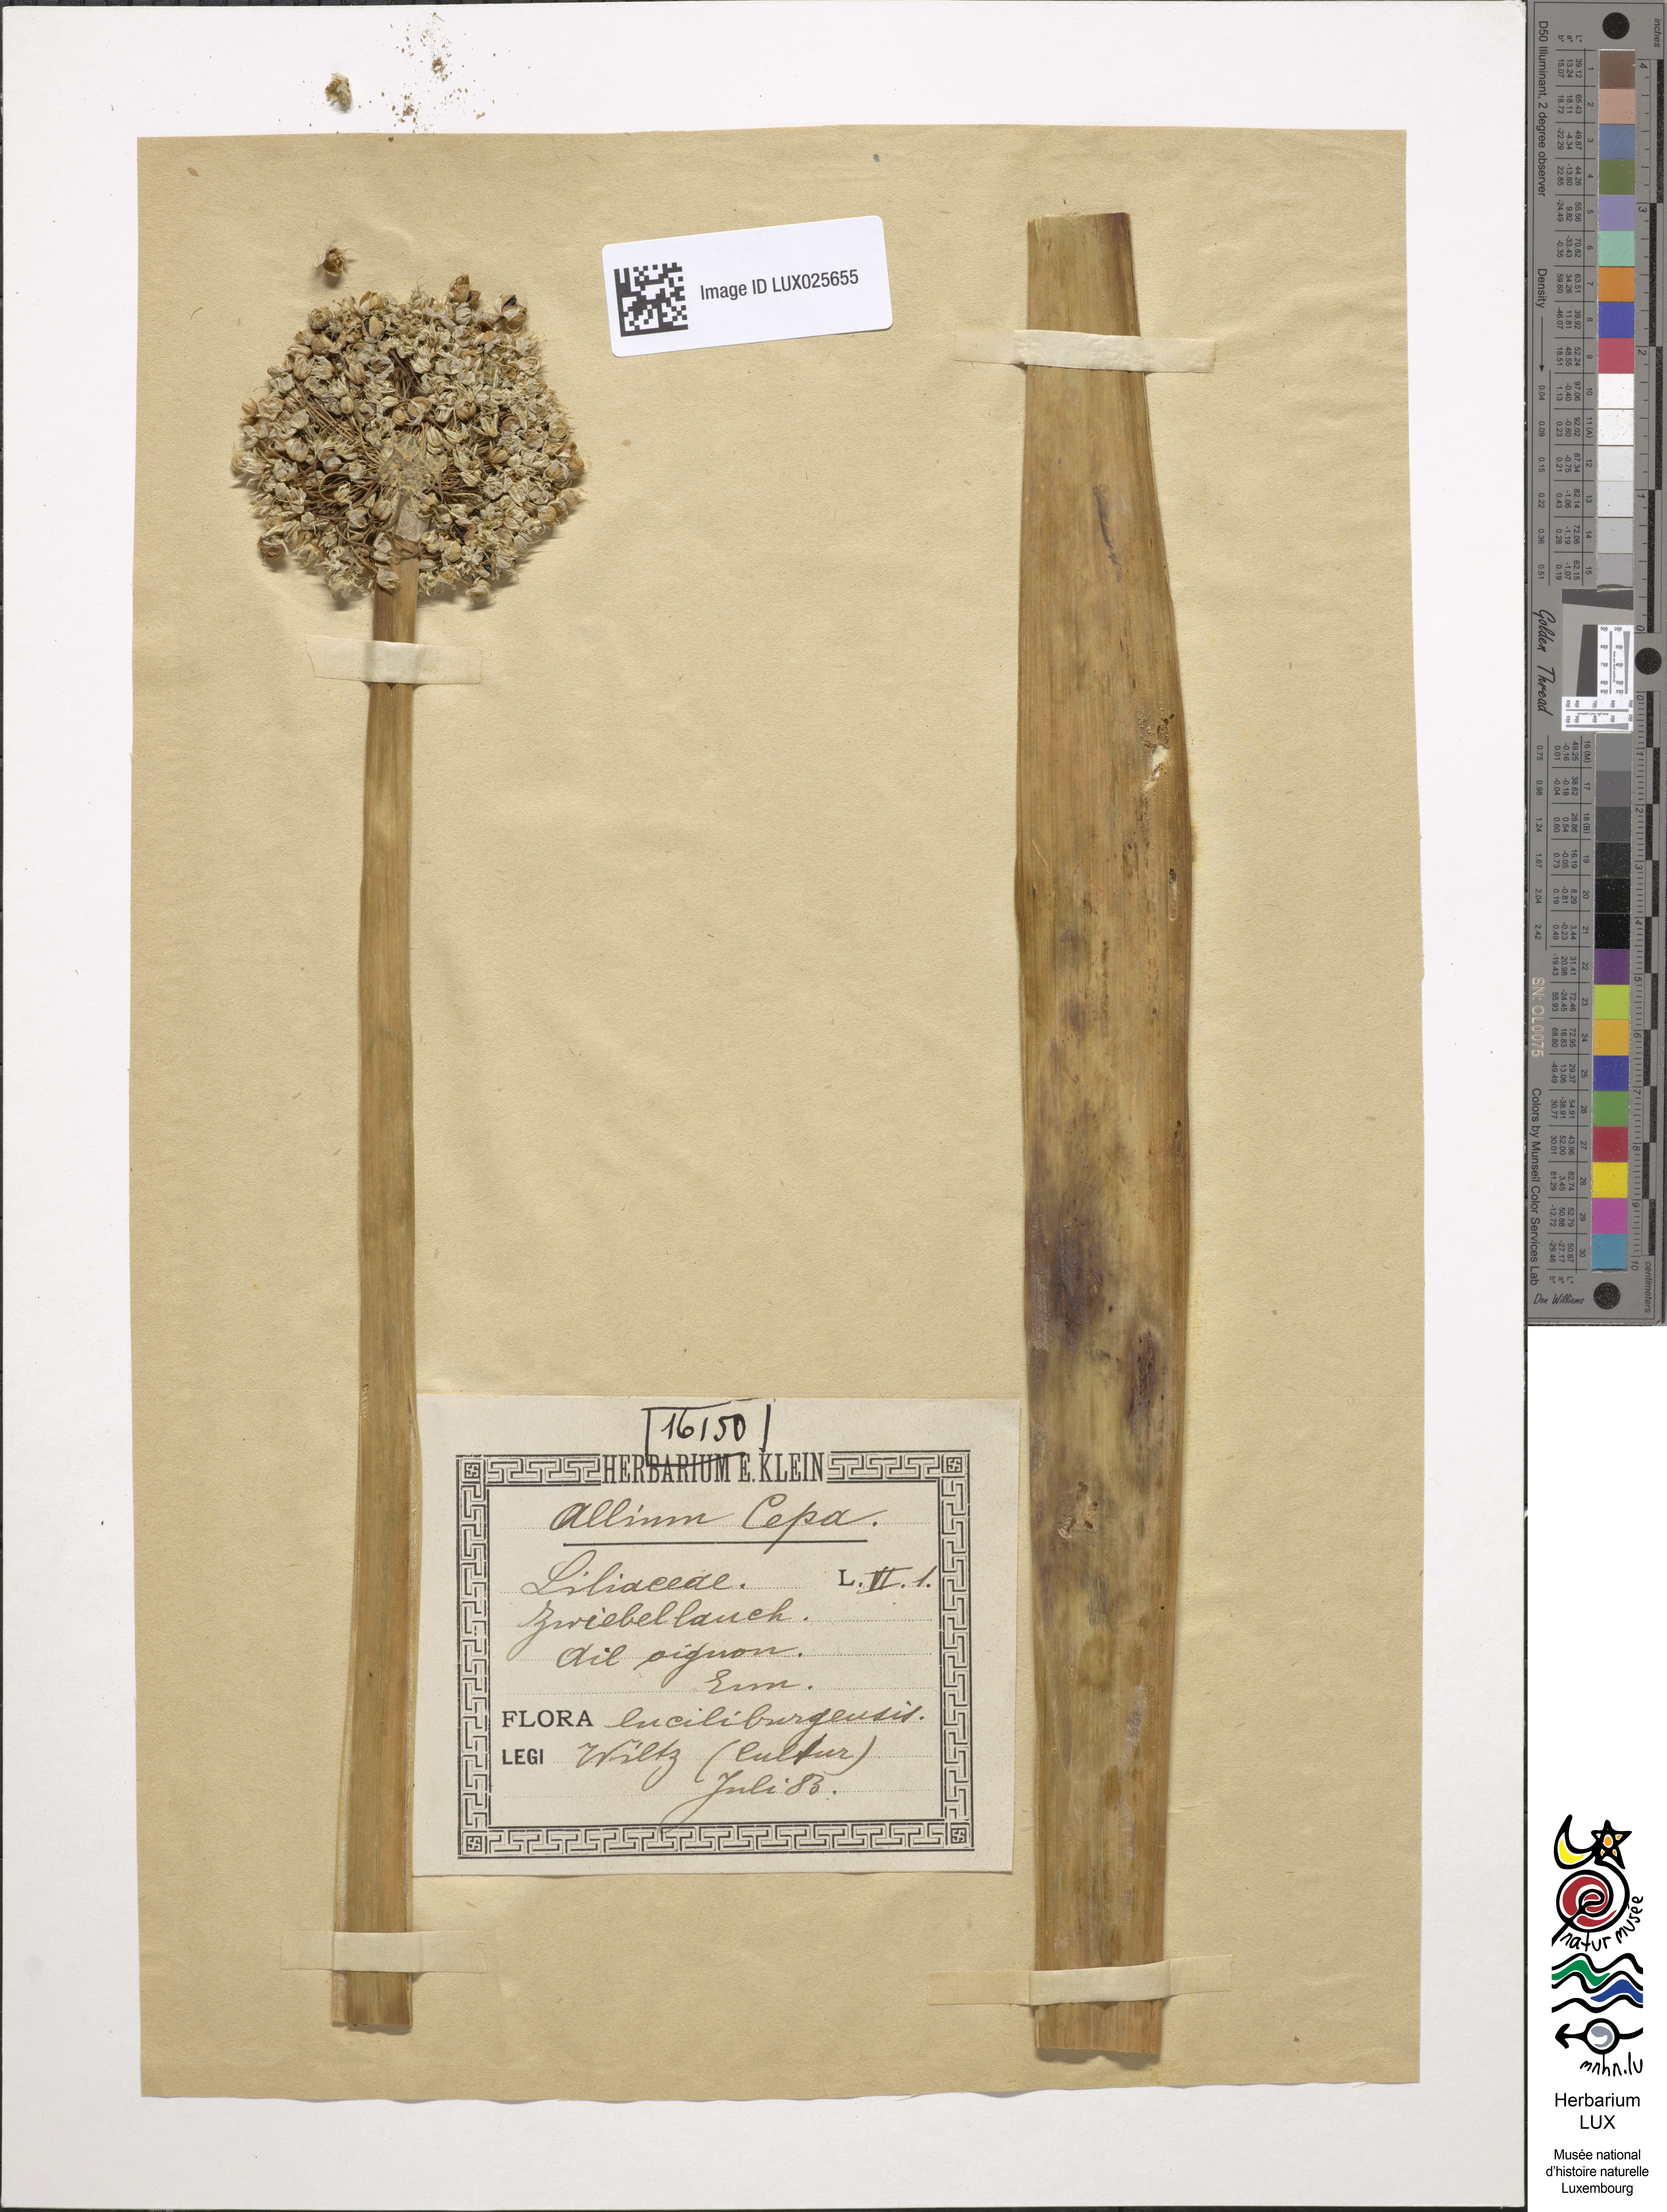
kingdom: Plantae
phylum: Tracheophyta
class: Liliopsida
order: Asparagales
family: Amaryllidaceae
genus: Allium
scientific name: Allium cepa
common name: Onion
